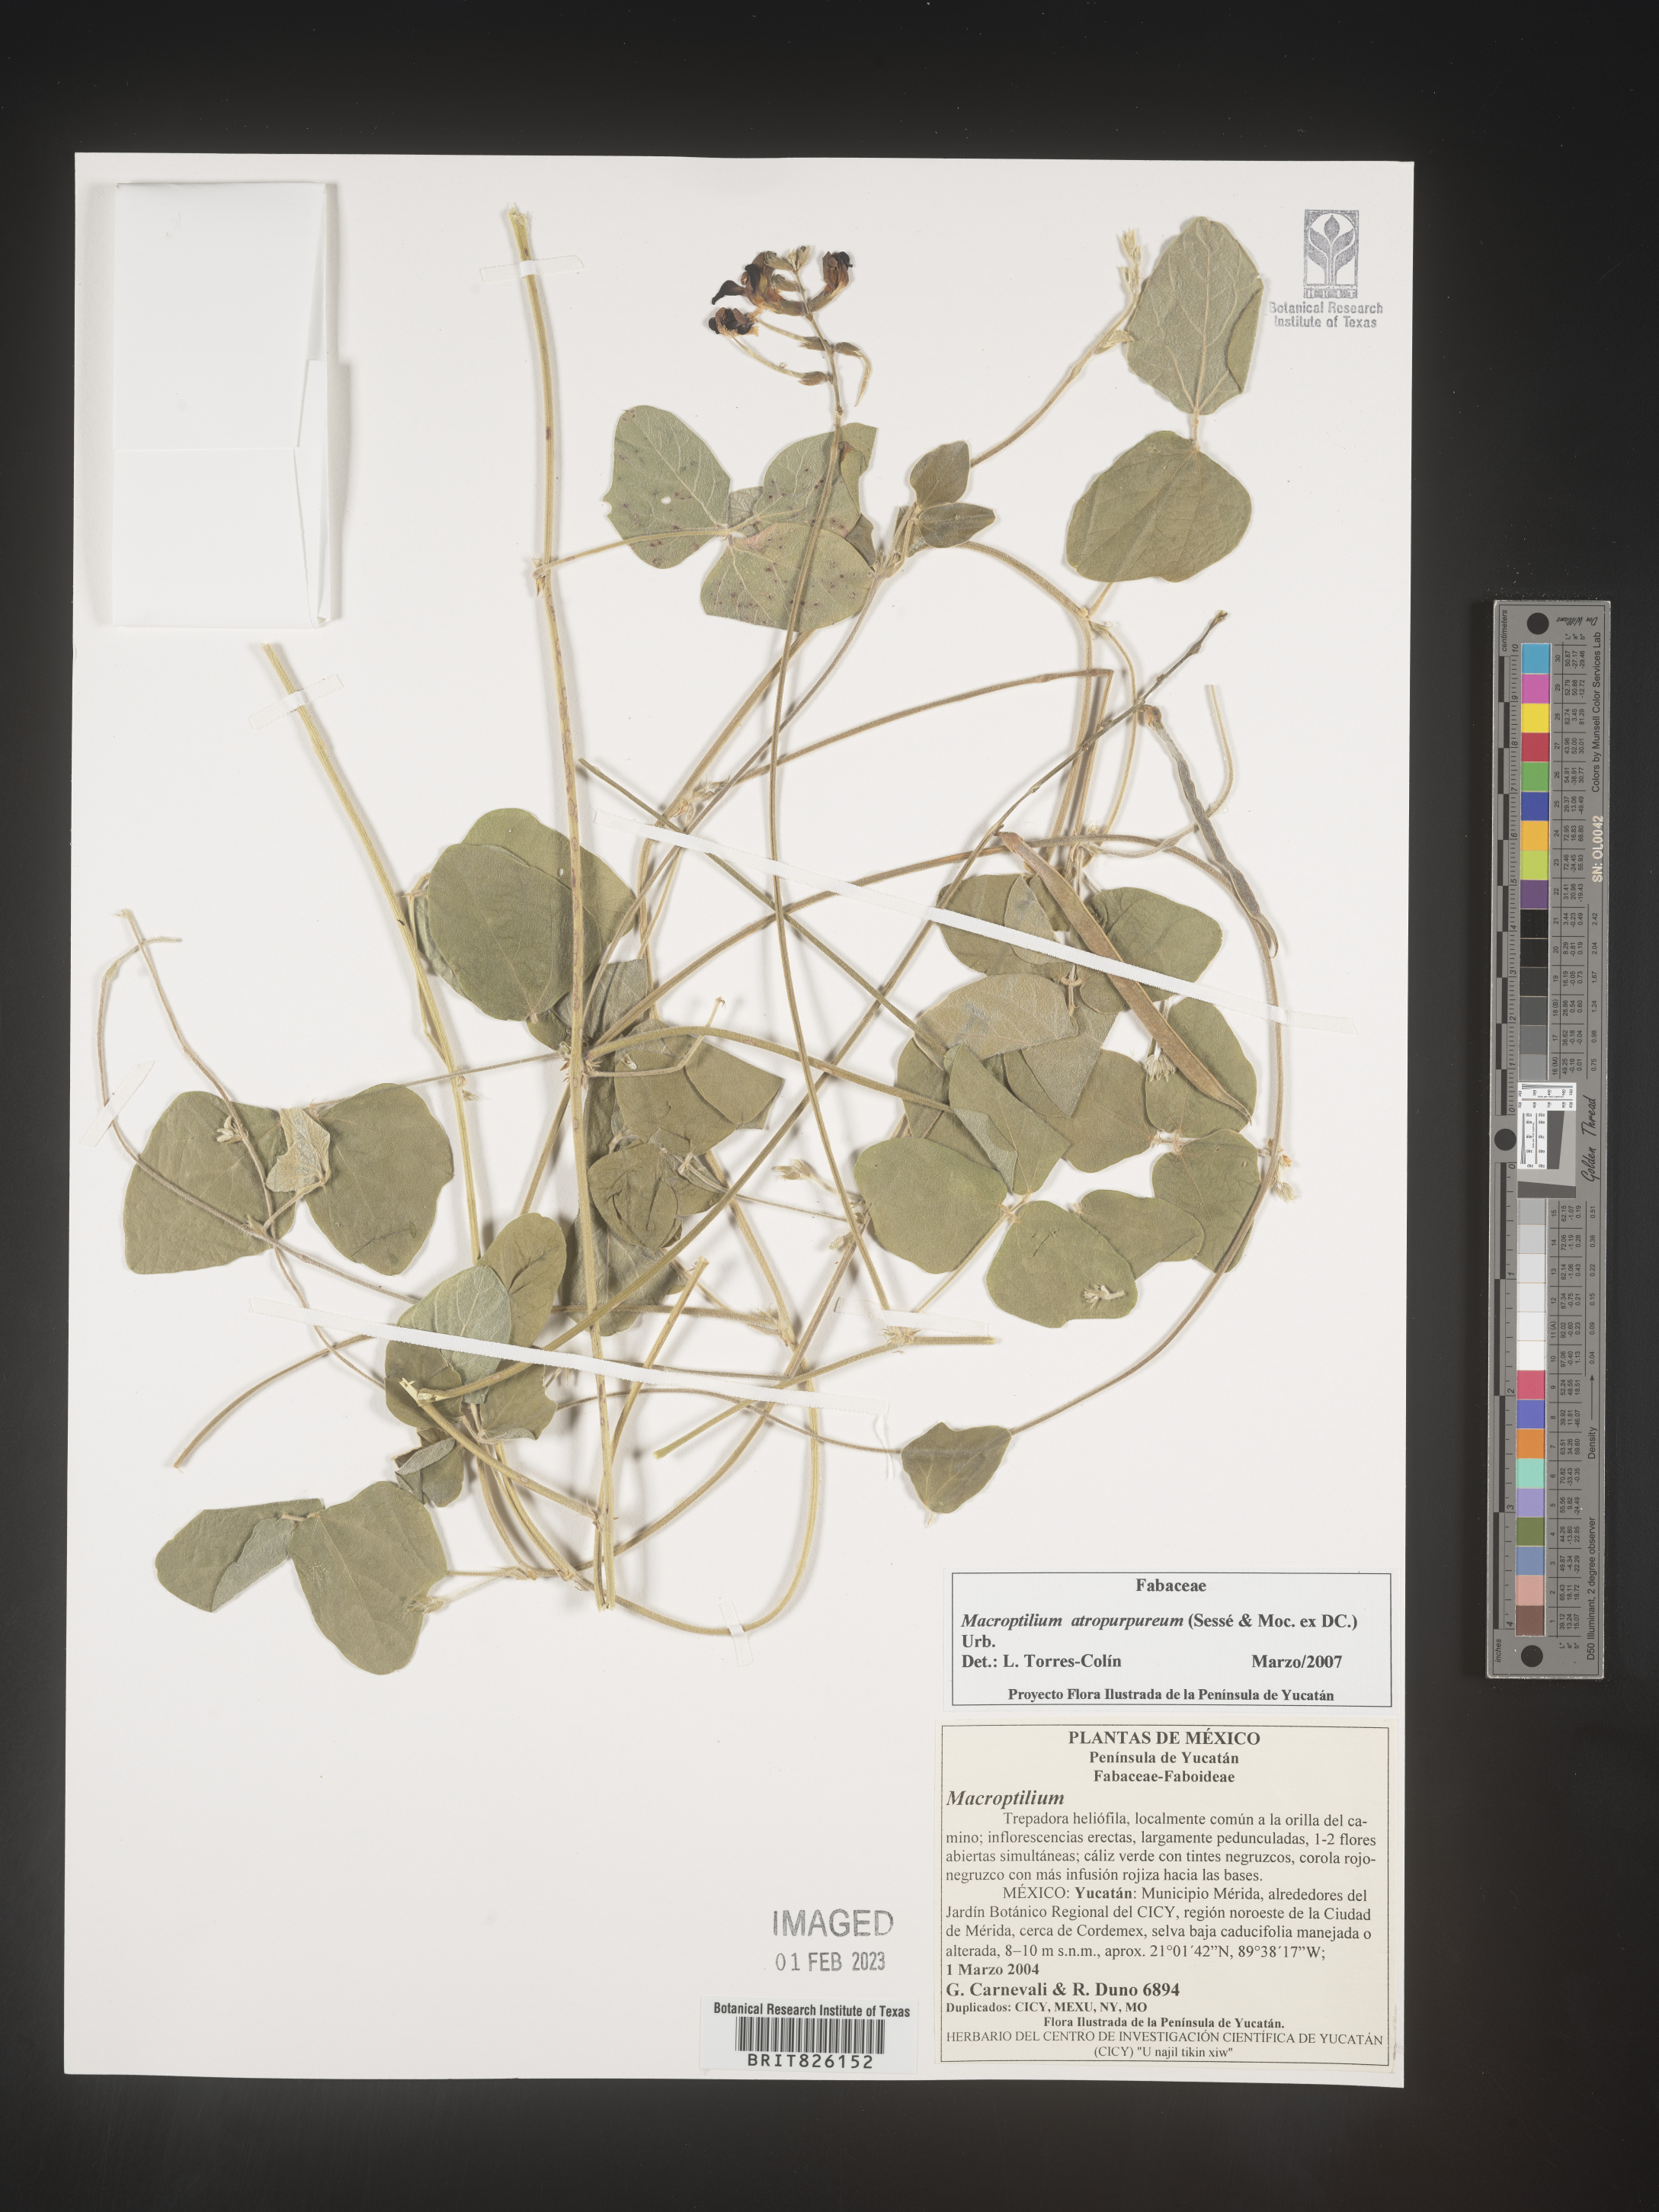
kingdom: Plantae
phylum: Tracheophyta
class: Magnoliopsida
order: Fabales
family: Fabaceae
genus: Macroptilium
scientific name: Macroptilium
